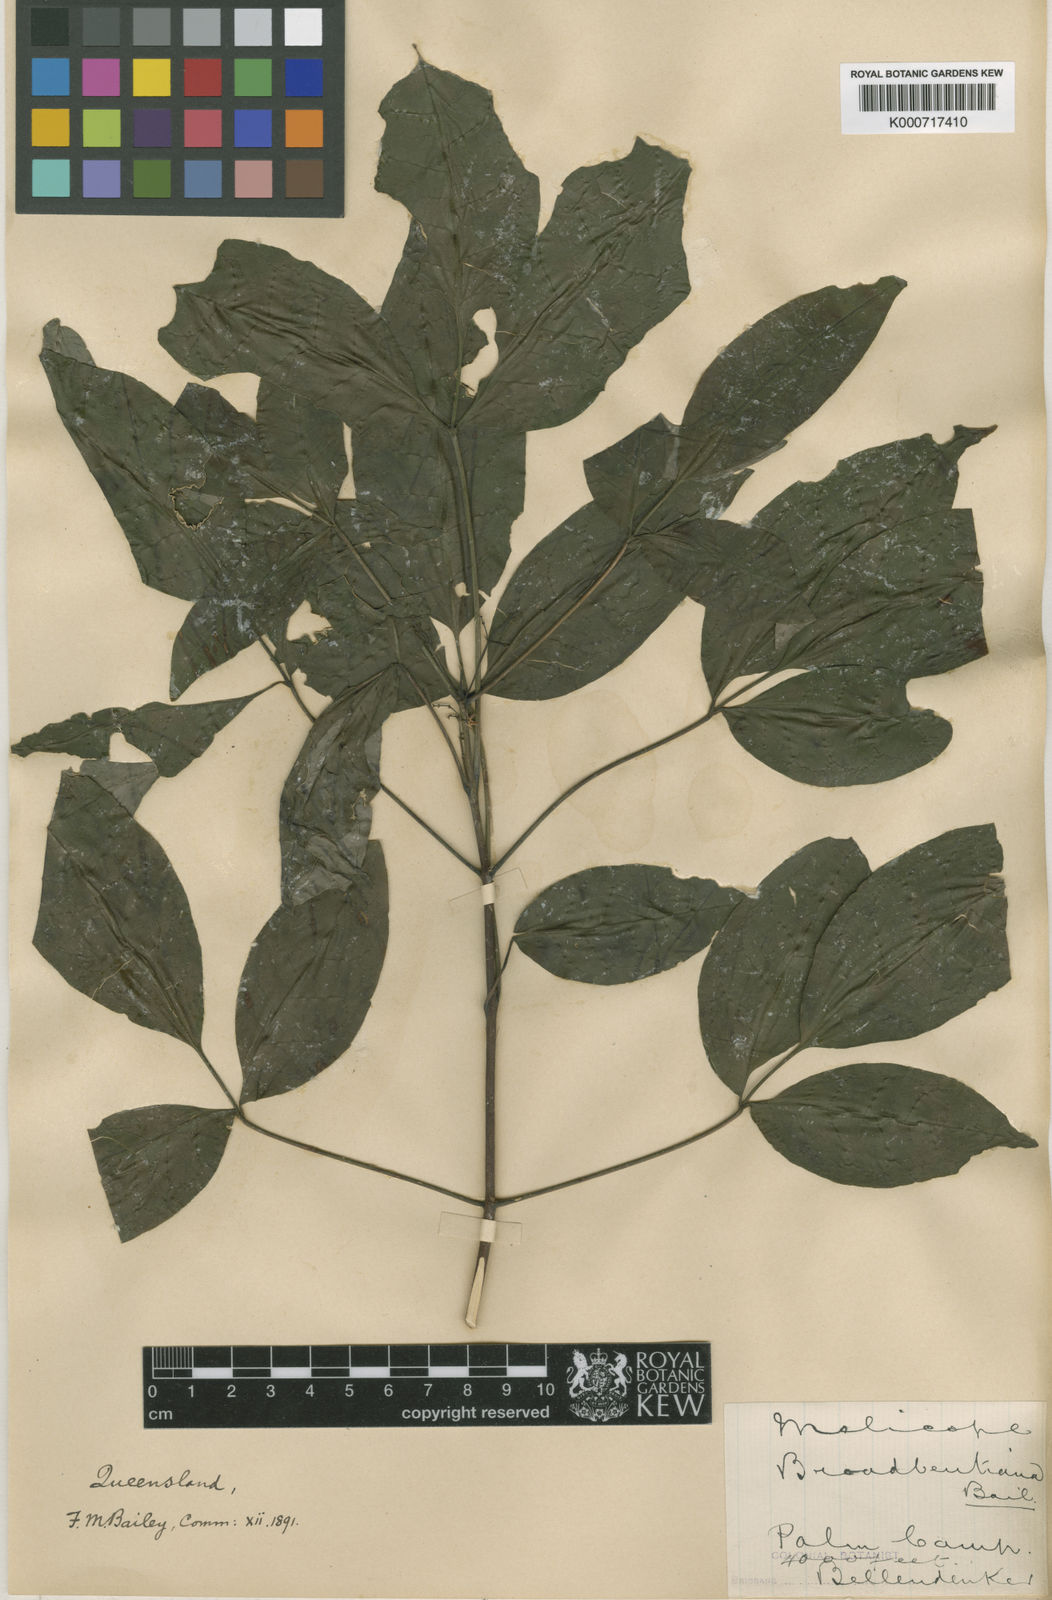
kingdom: Plantae
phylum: Tracheophyta
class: Magnoliopsida
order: Sapindales
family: Rutaceae
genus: Melicope
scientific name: Melicope broadbentiana
